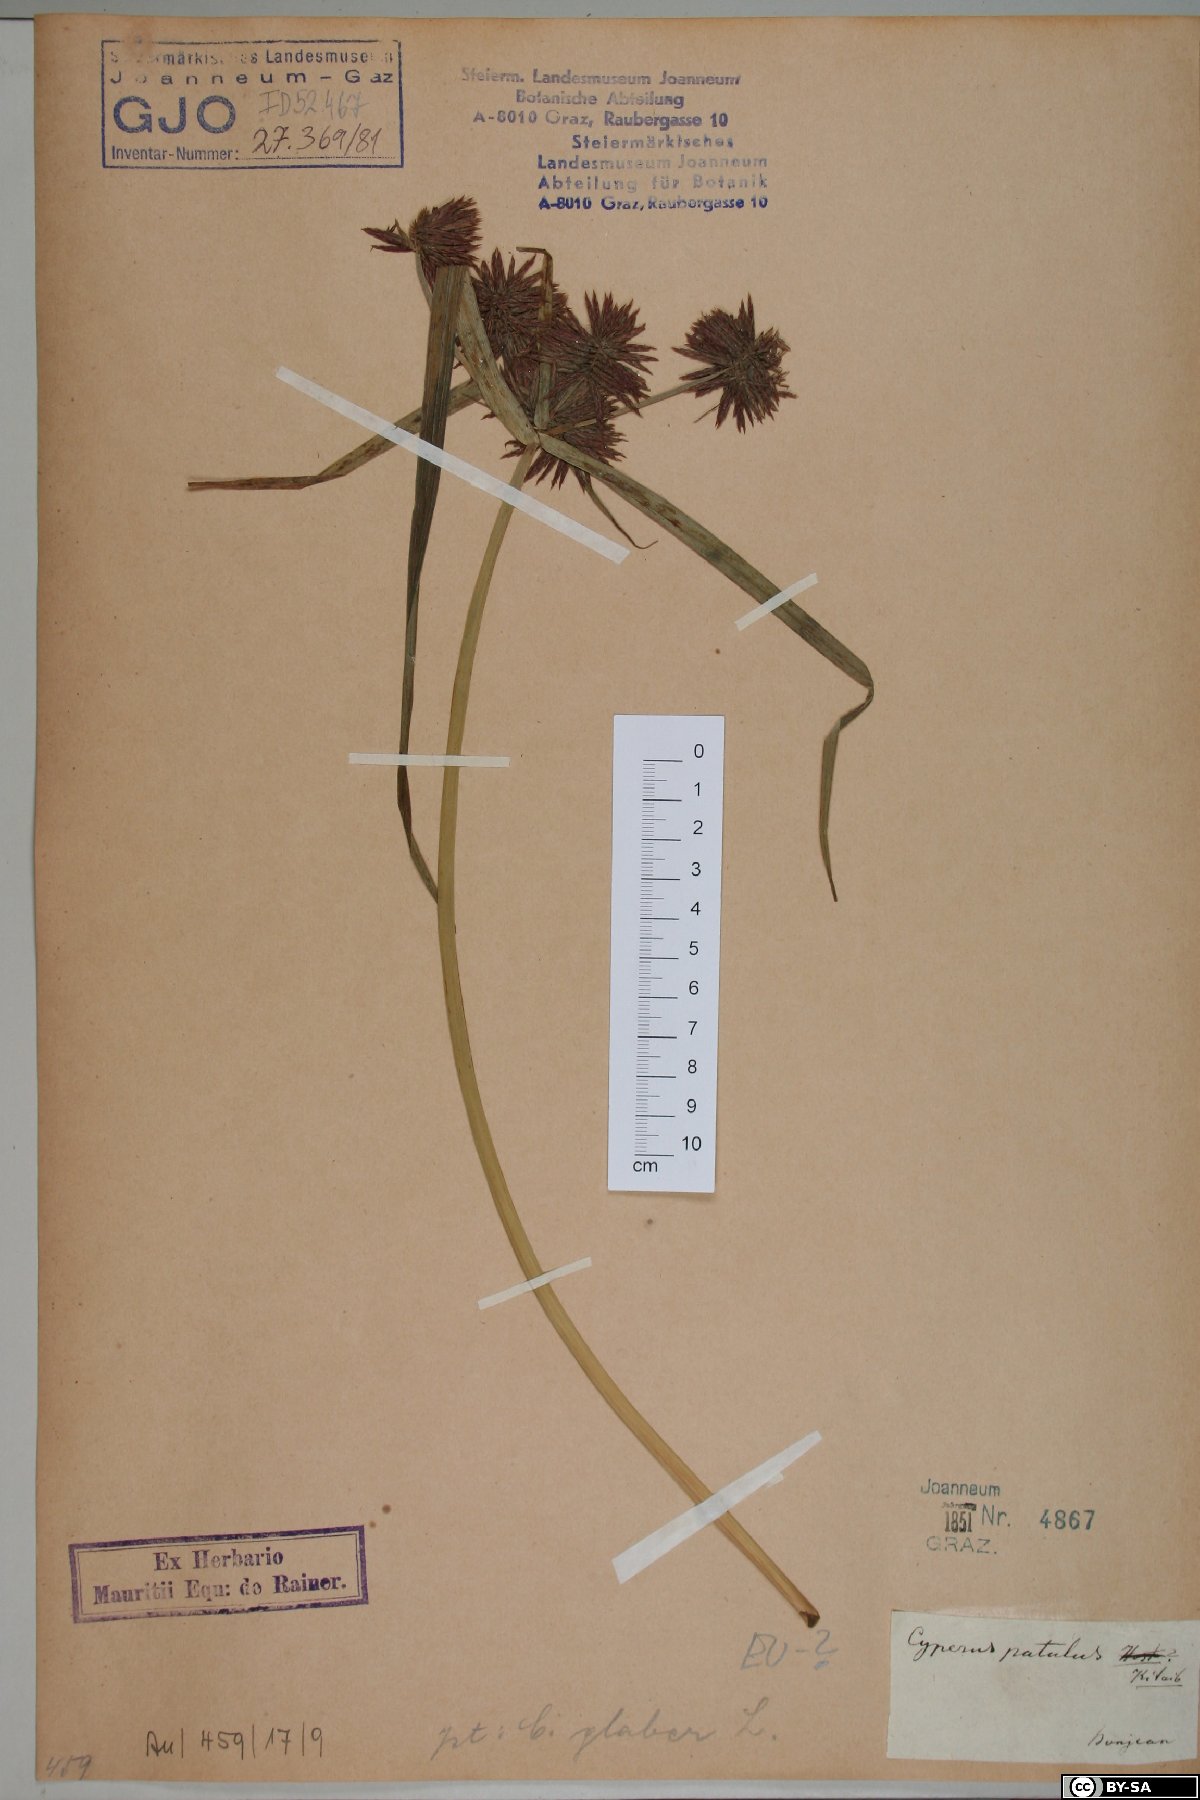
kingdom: Plantae
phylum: Tracheophyta
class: Liliopsida
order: Poales
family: Cyperaceae
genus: Cyperus
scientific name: Cyperus glaber
